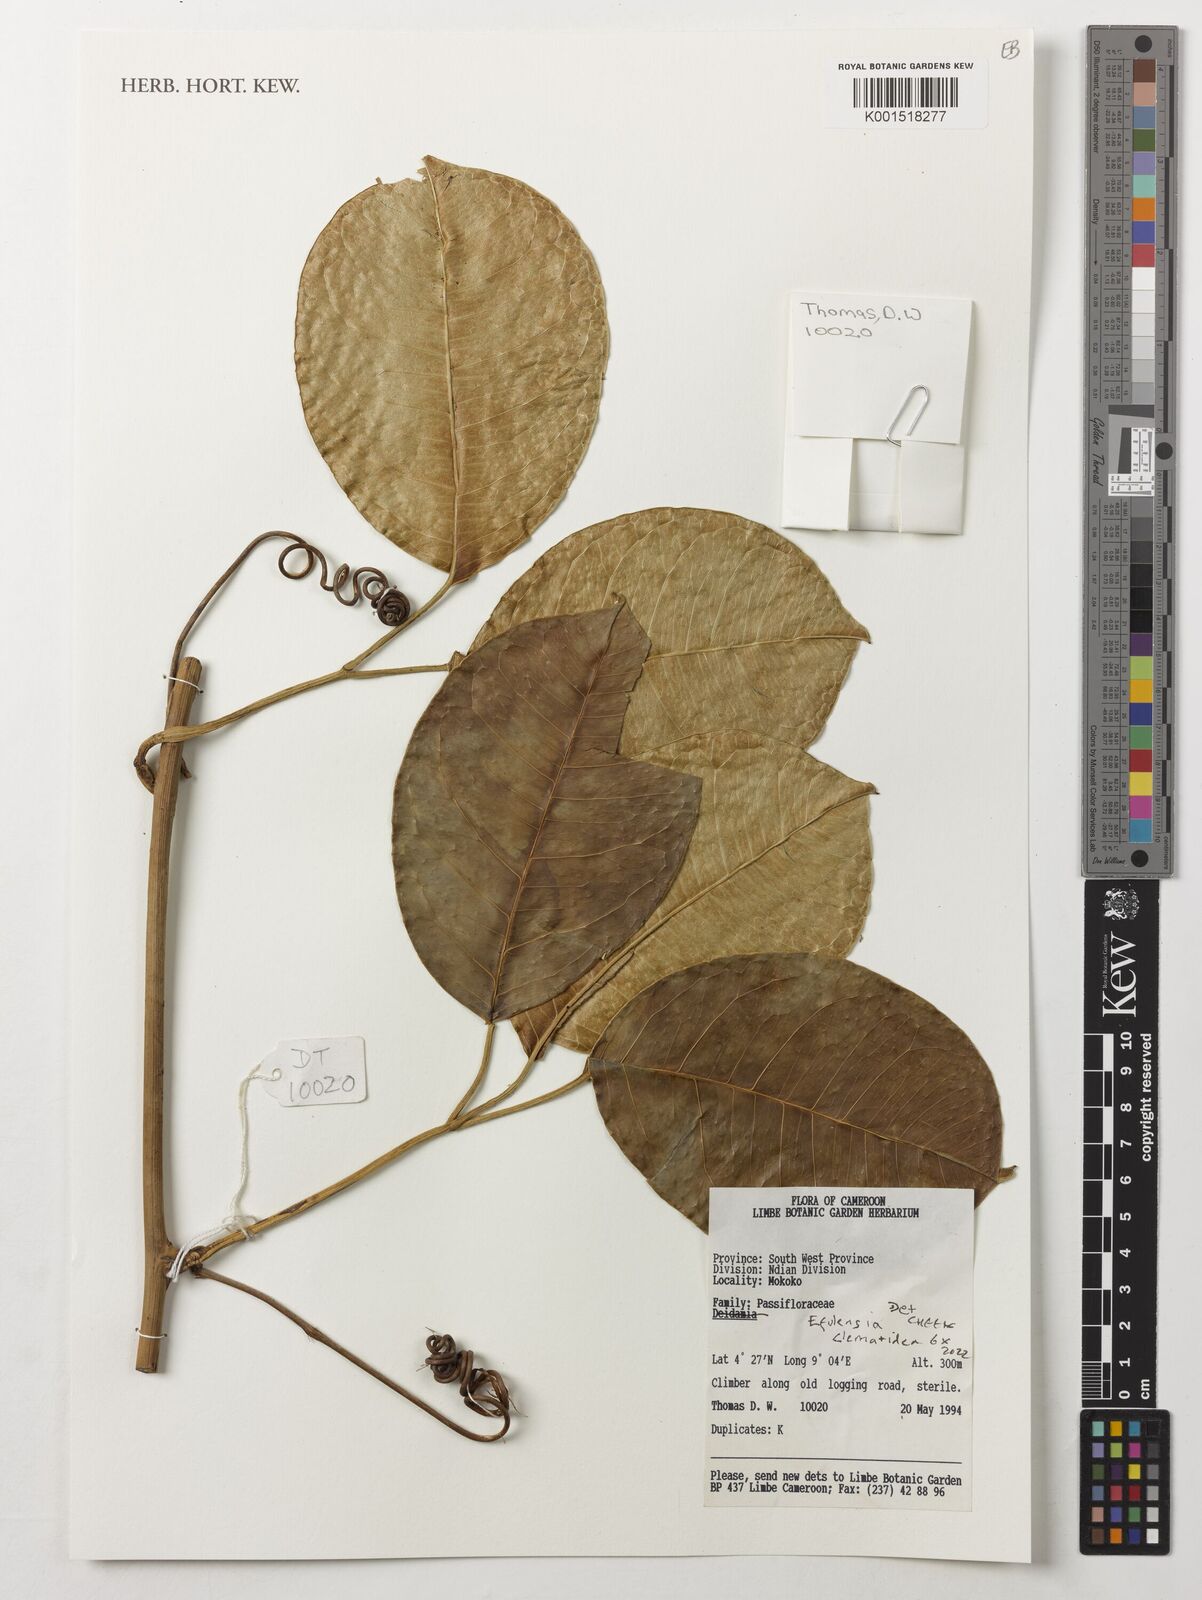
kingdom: Plantae
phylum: Tracheophyta
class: Magnoliopsida
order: Malpighiales
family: Passifloraceae
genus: Efulensia
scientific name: Efulensia clematoides
